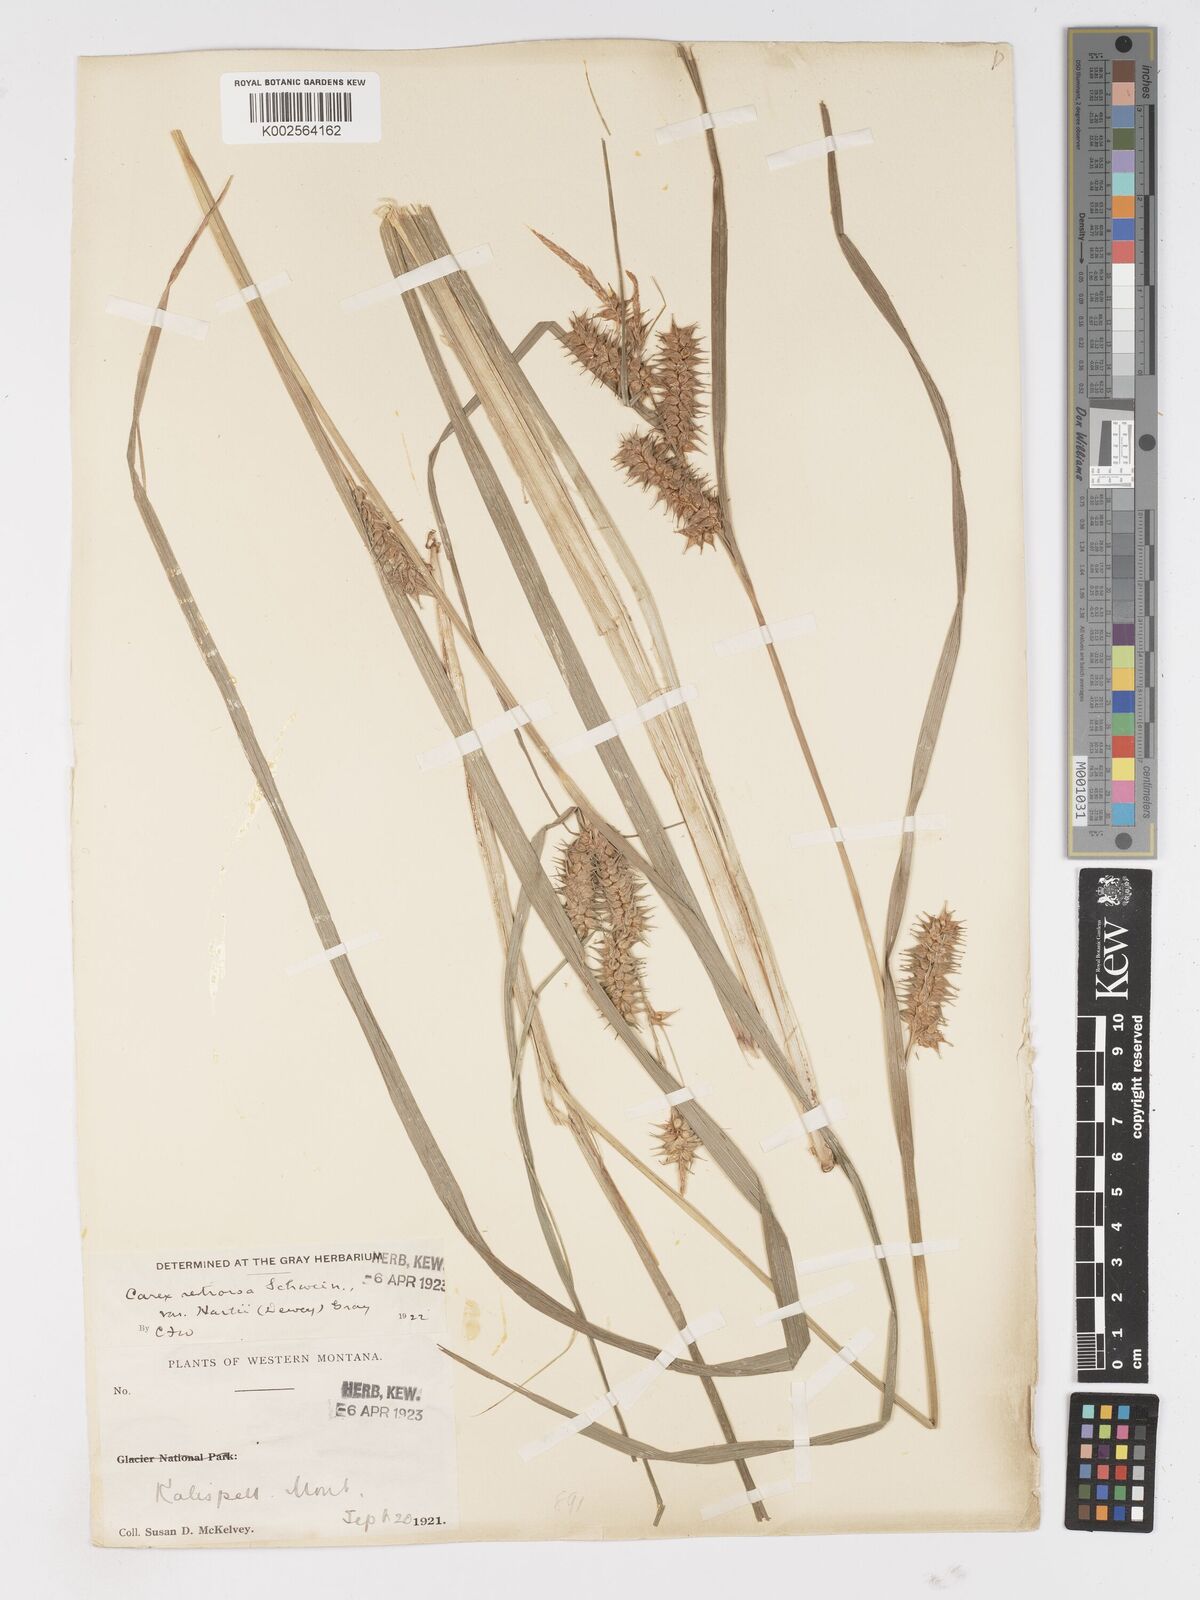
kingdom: Plantae
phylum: Tracheophyta
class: Liliopsida
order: Poales
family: Cyperaceae
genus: Carex
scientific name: Carex retrorsa
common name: Knot-sheath sedge
